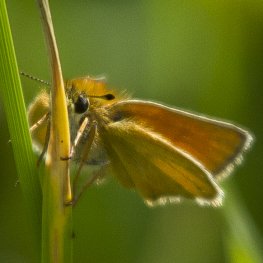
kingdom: Animalia
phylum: Arthropoda
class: Insecta
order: Lepidoptera
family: Hesperiidae
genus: Thymelicus
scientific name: Thymelicus lineola
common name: European Skipper
